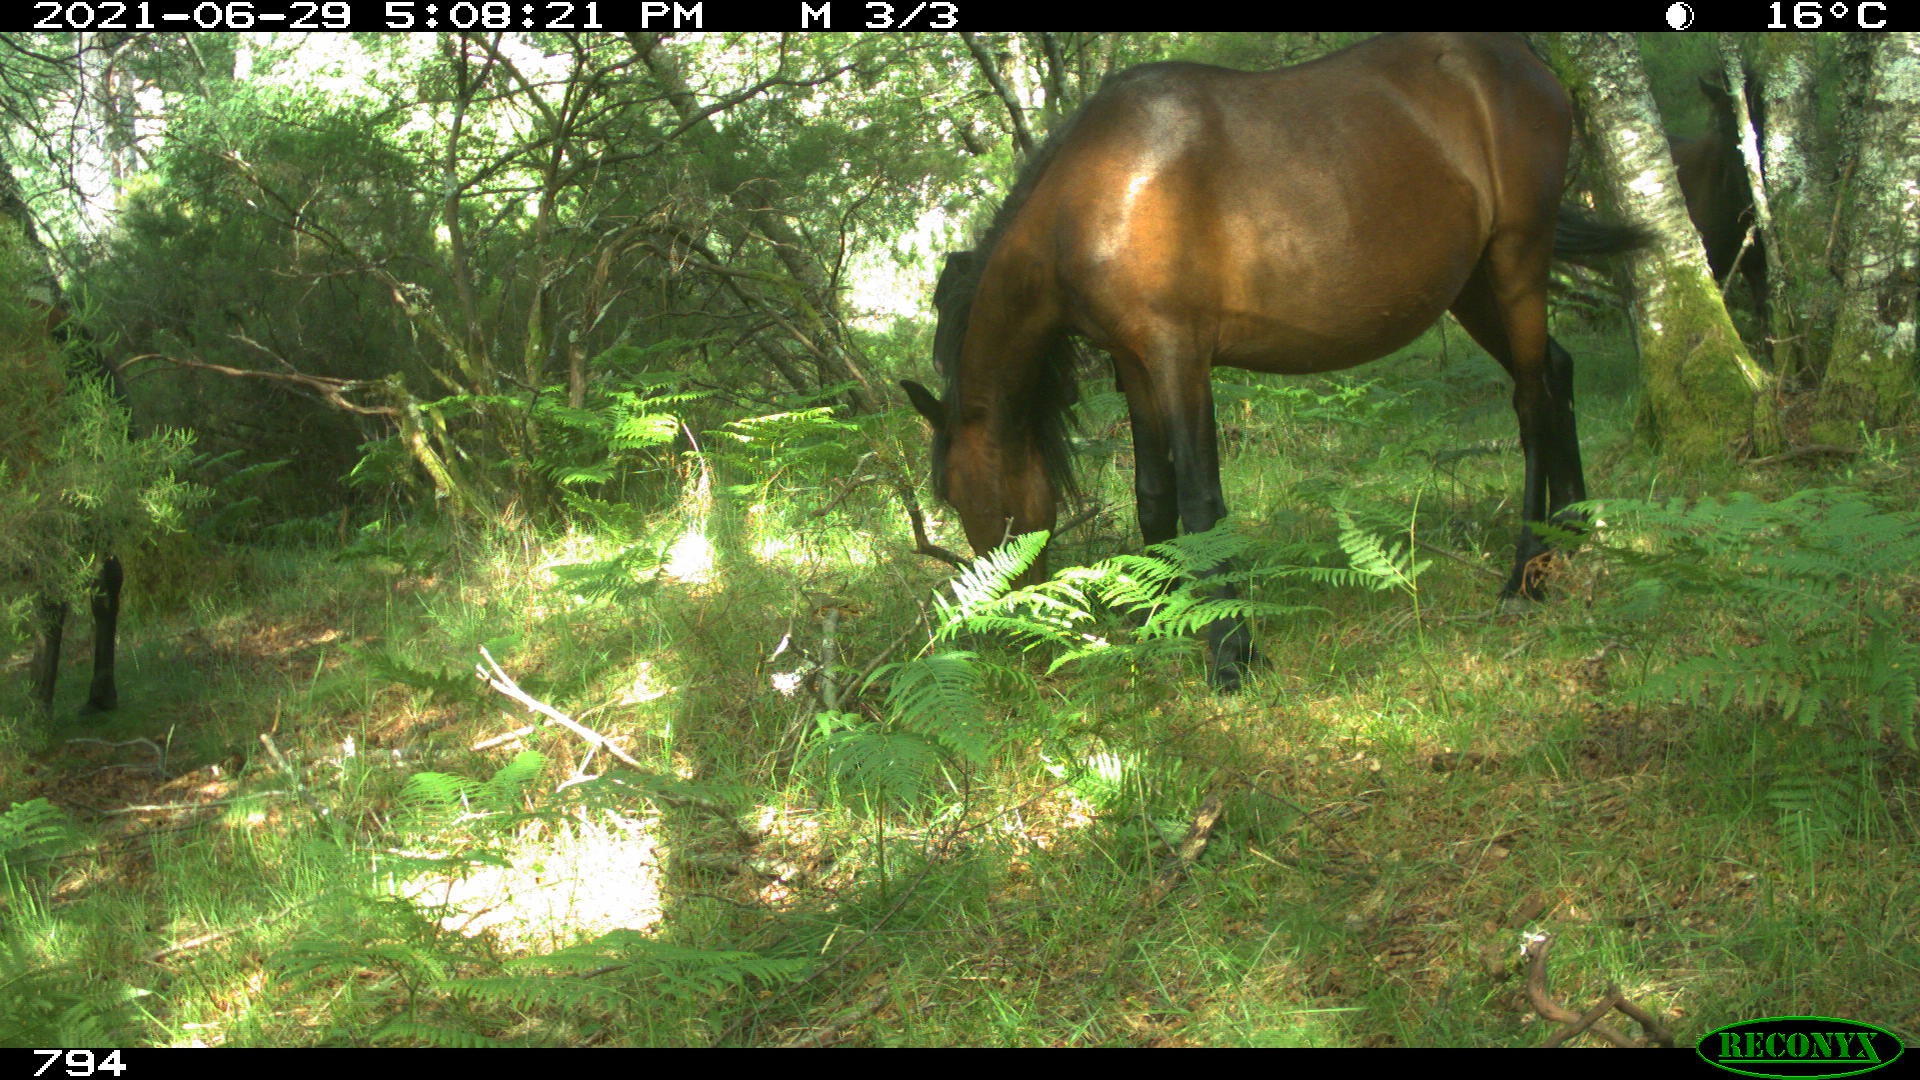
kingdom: Animalia
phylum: Chordata
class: Mammalia
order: Perissodactyla
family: Equidae
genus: Equus
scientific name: Equus caballus
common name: Horse
